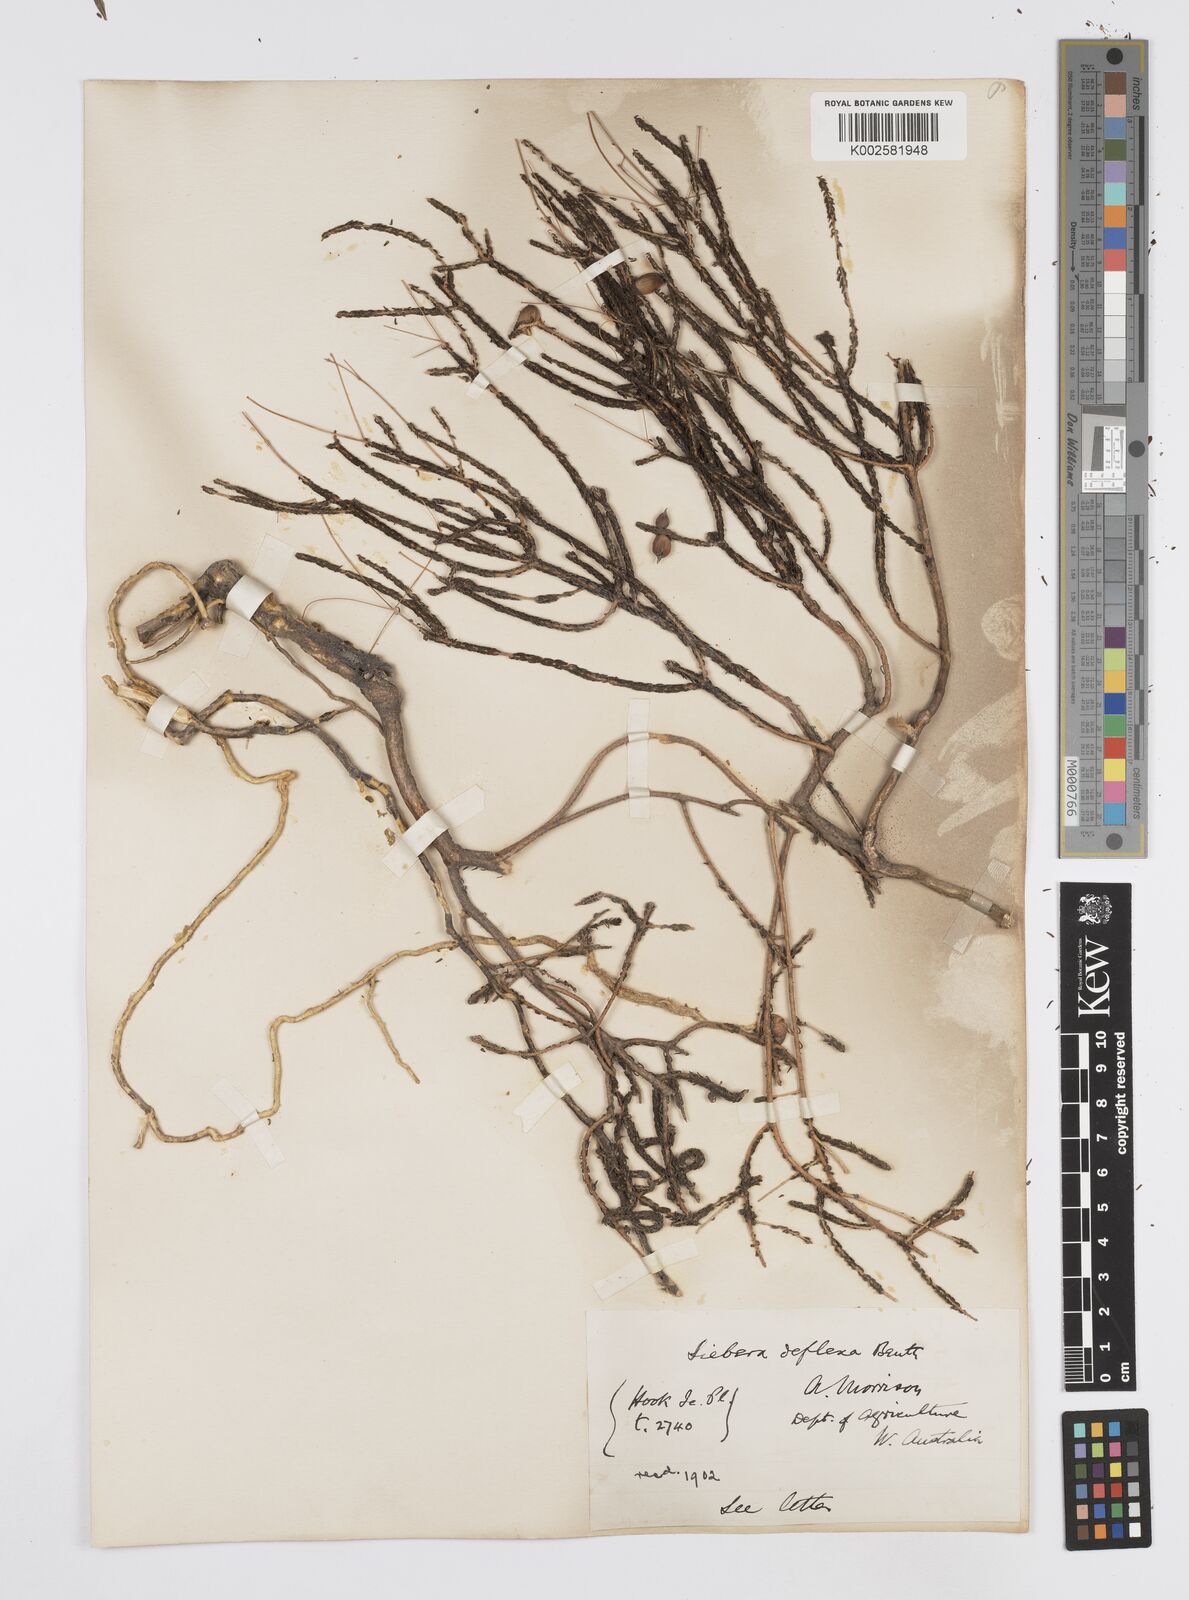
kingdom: Plantae
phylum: Tracheophyta
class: Magnoliopsida
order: Apiales
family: Apiaceae
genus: Platysace
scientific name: Platysace deflexa
